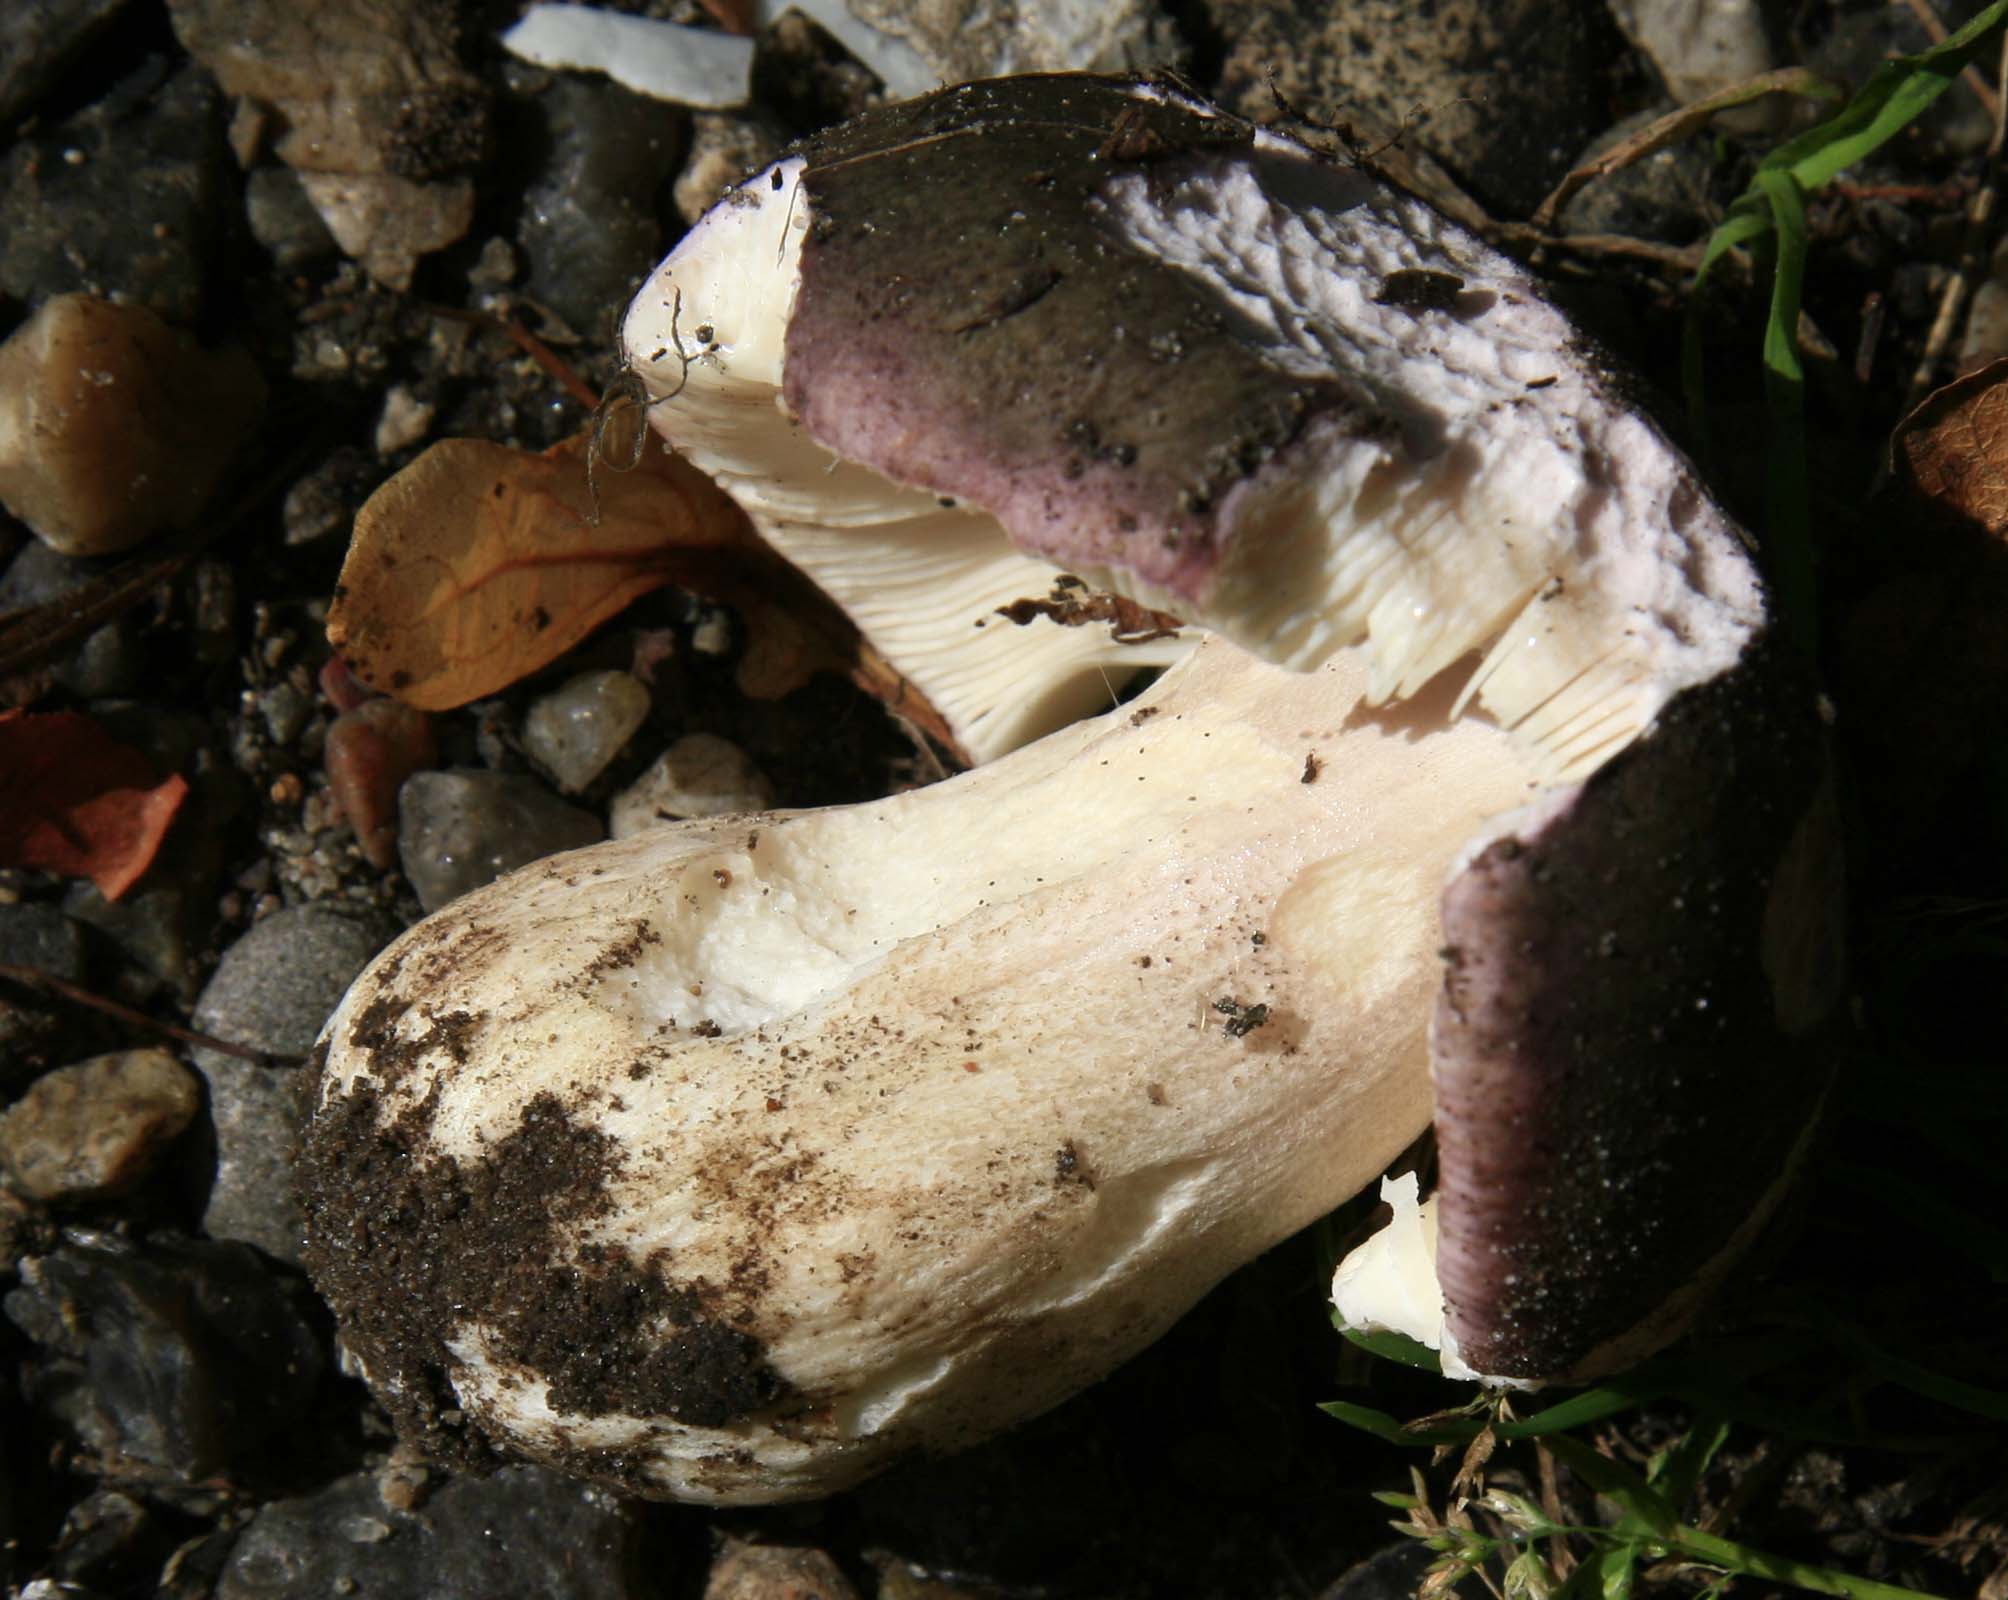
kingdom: Fungi
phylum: Basidiomycota
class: Agaricomycetes
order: Russulales
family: Russulaceae
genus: Russula
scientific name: Russula grisea
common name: grålig skørhat
